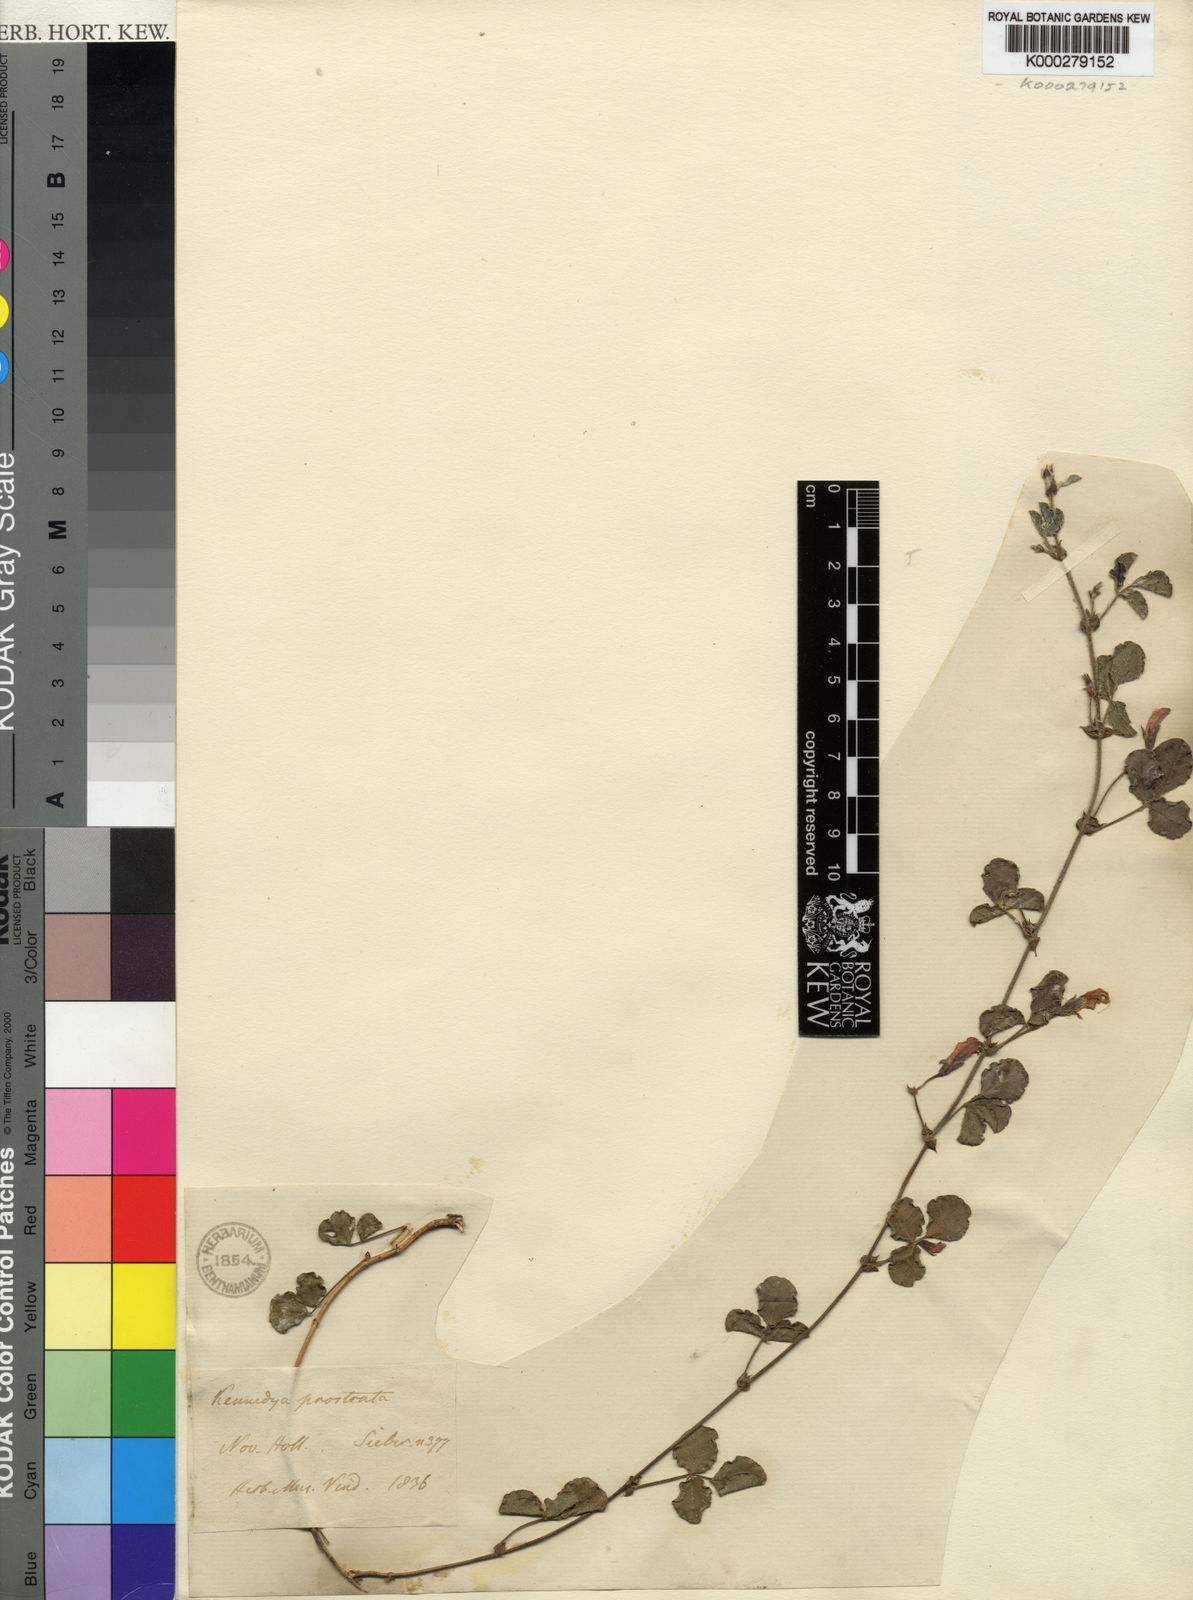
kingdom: Plantae
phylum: Tracheophyta
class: Magnoliopsida
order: Fabales
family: Fabaceae
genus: Kennedia
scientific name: Kennedia prostrata
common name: Running-postman
